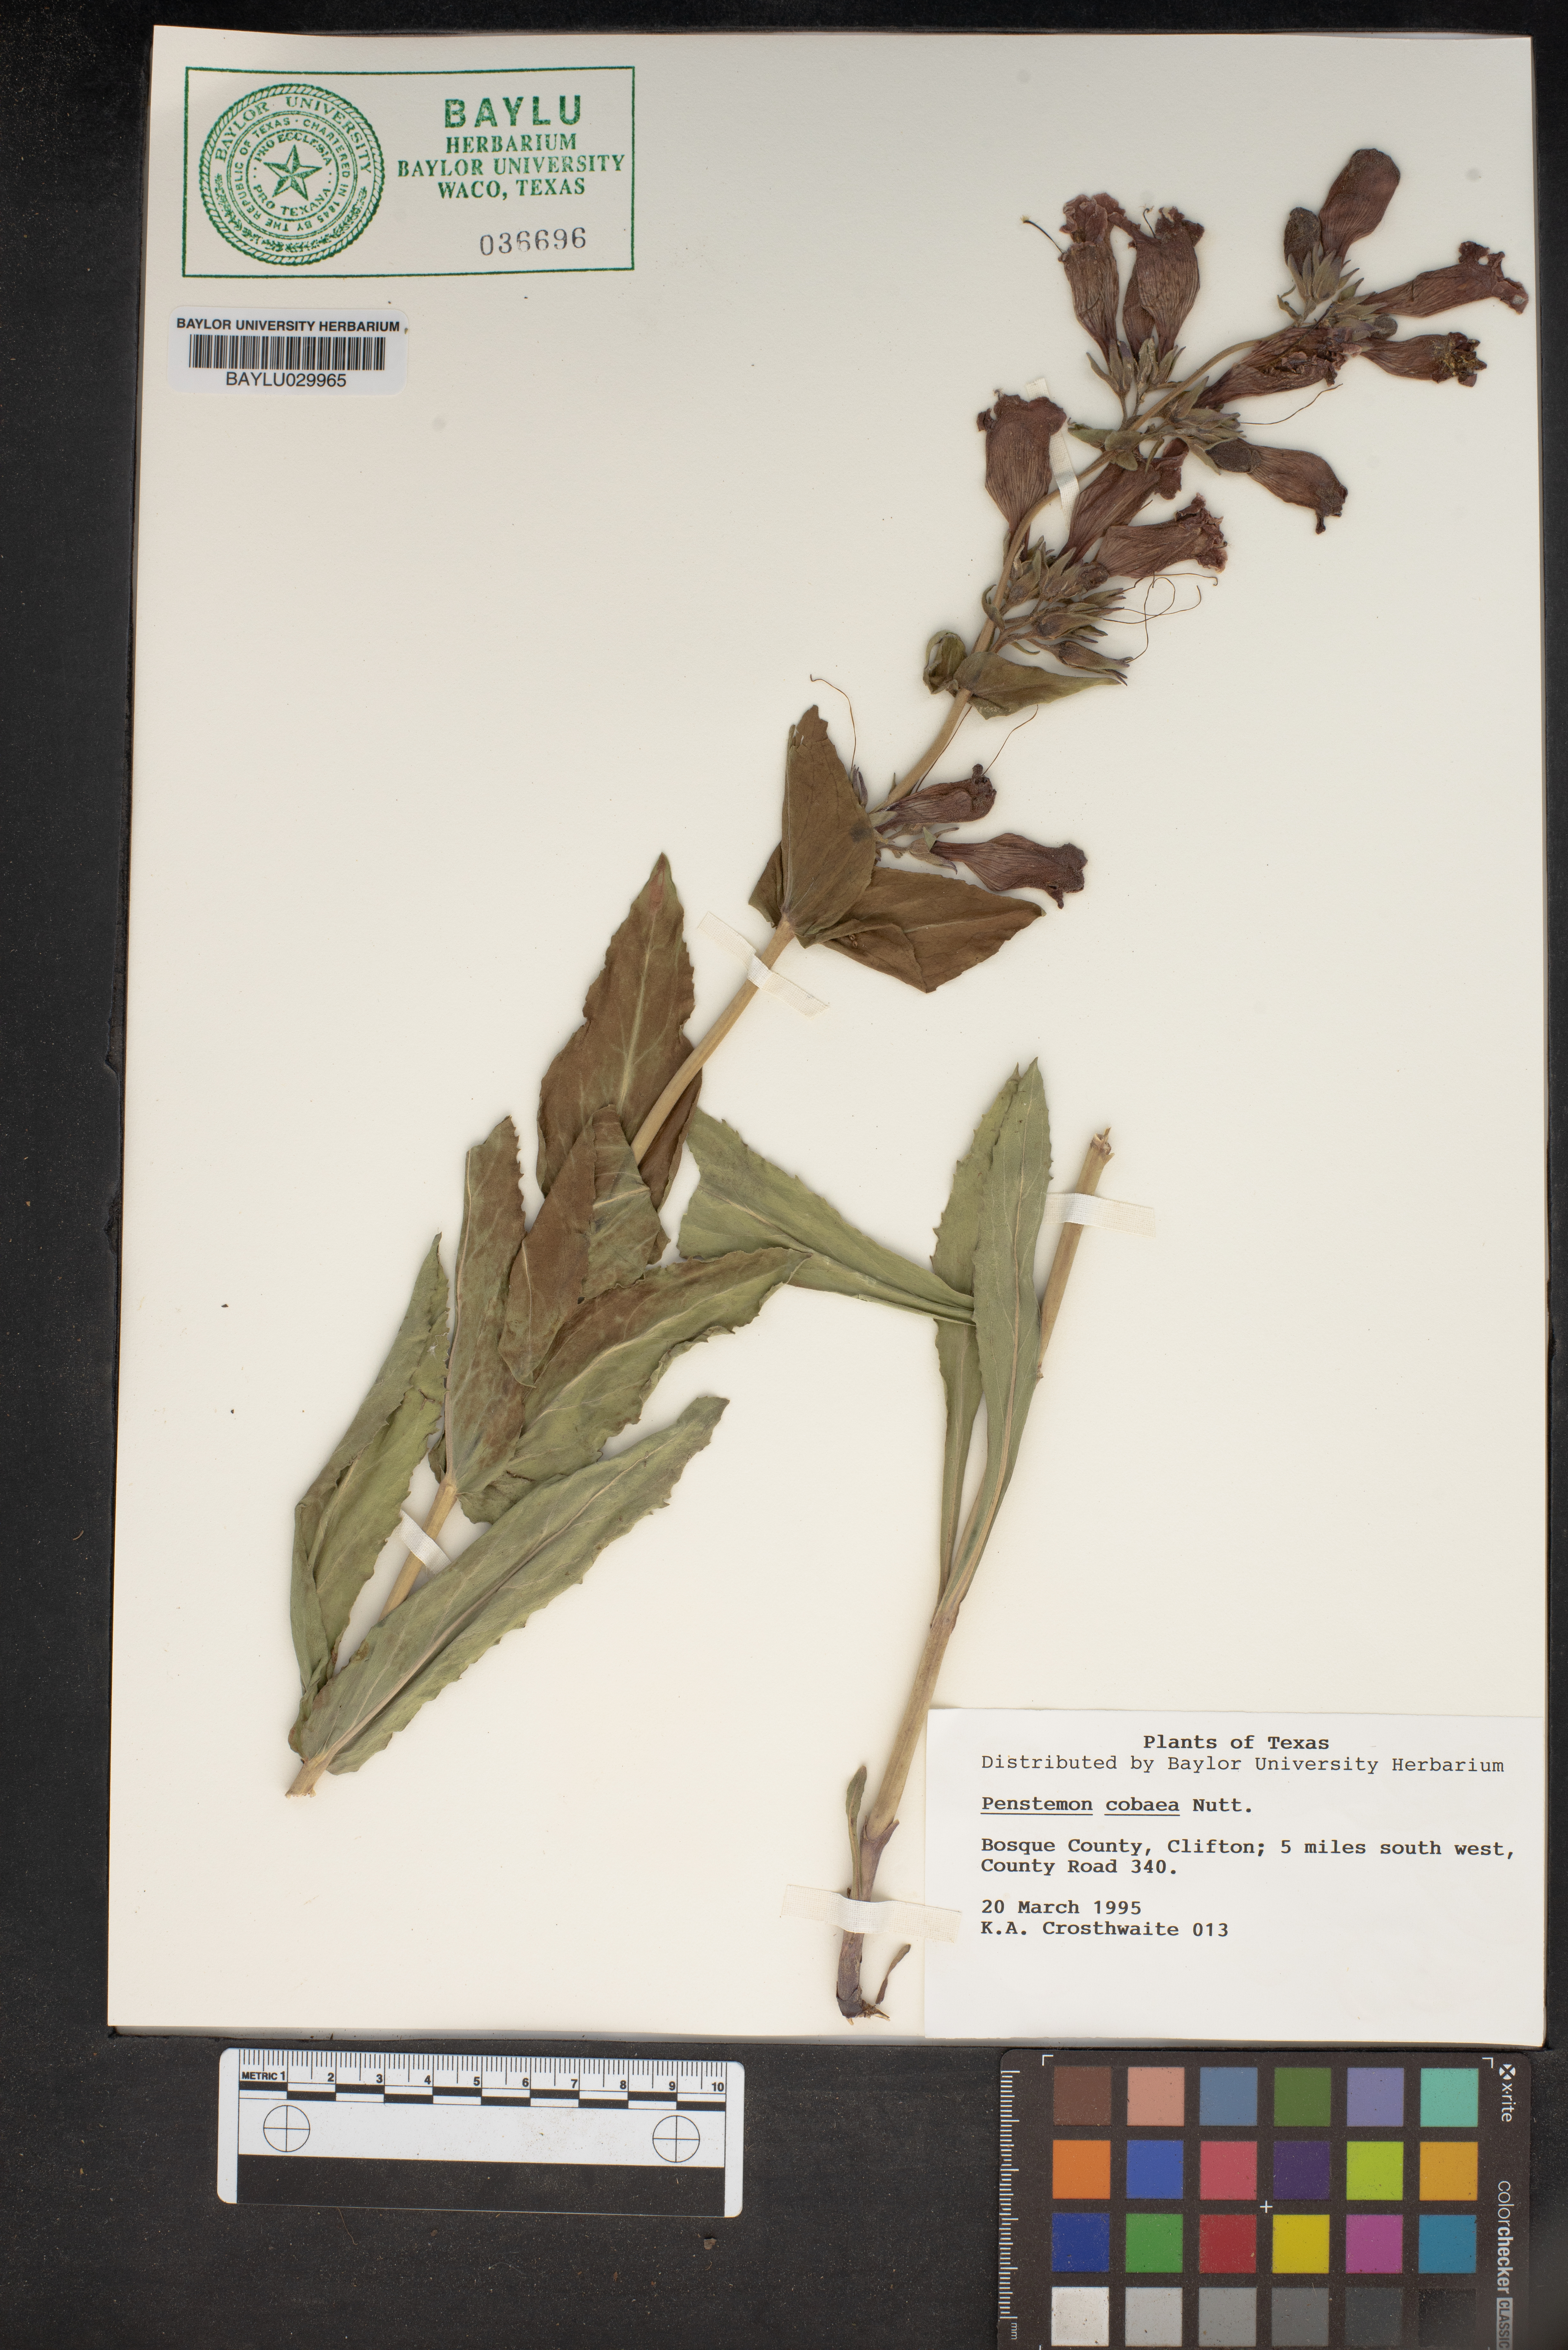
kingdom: Plantae
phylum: Tracheophyta
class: Magnoliopsida
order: Lamiales
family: Plantaginaceae
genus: Penstemon
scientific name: Penstemon cobaea
